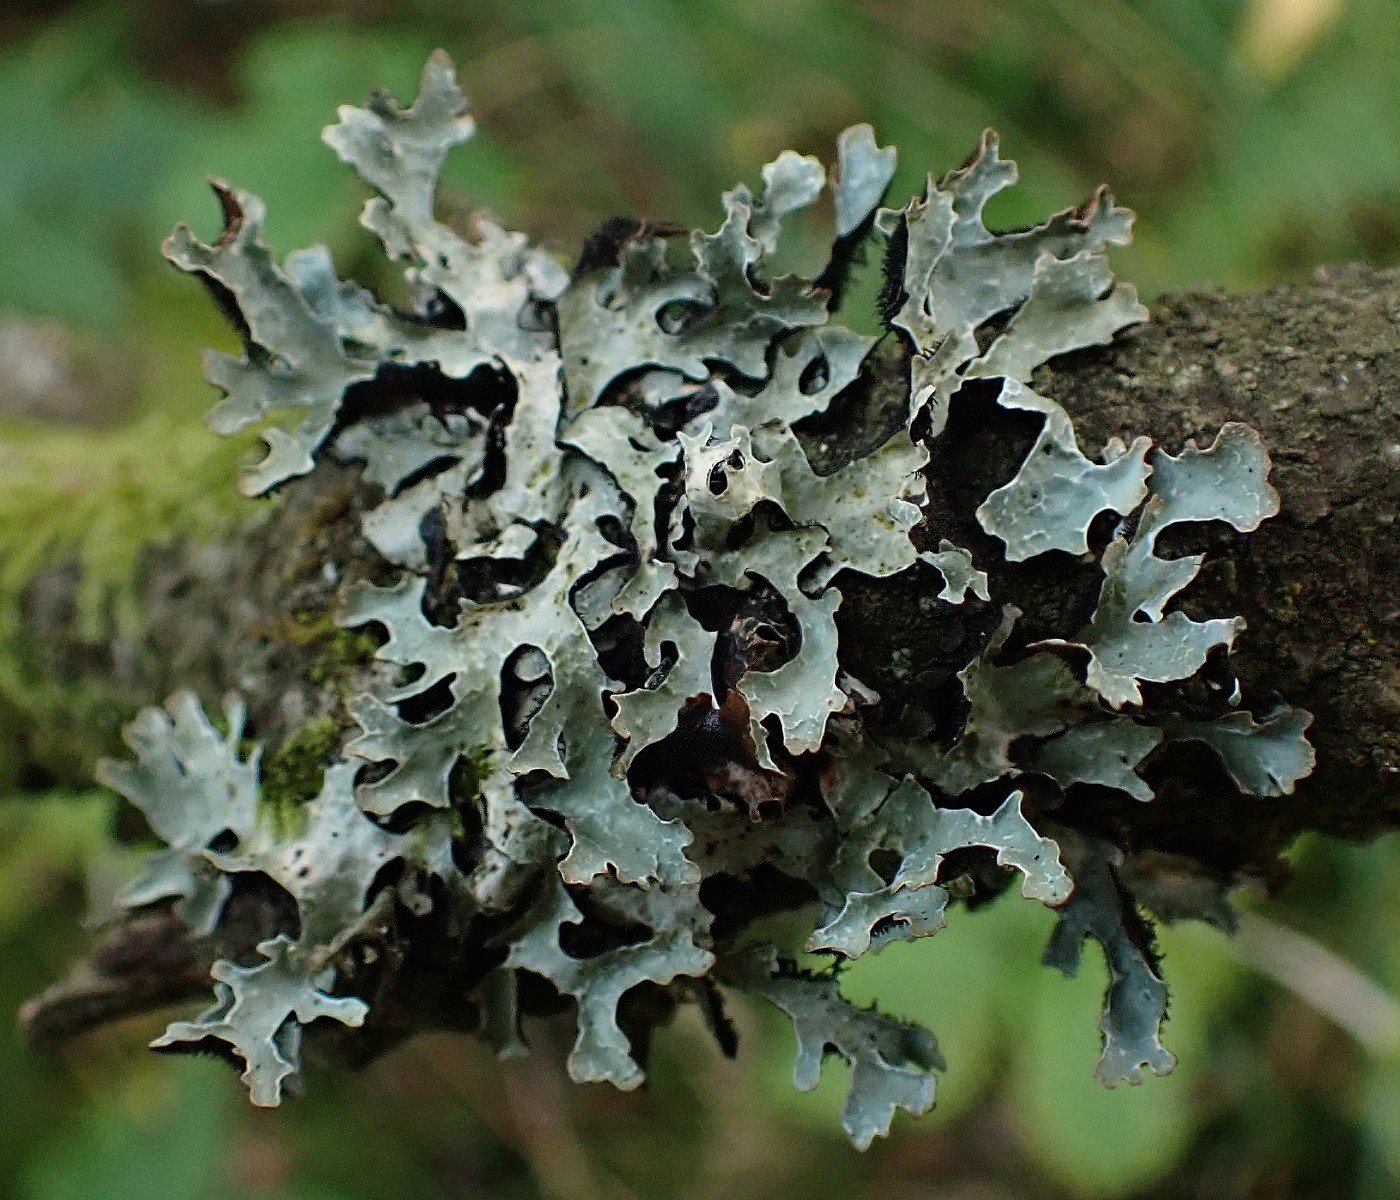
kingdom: Fungi
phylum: Ascomycota
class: Lecanoromycetes
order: Lecanorales
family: Parmeliaceae
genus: Parmelia
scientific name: Parmelia sulcata
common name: rynket skållav
